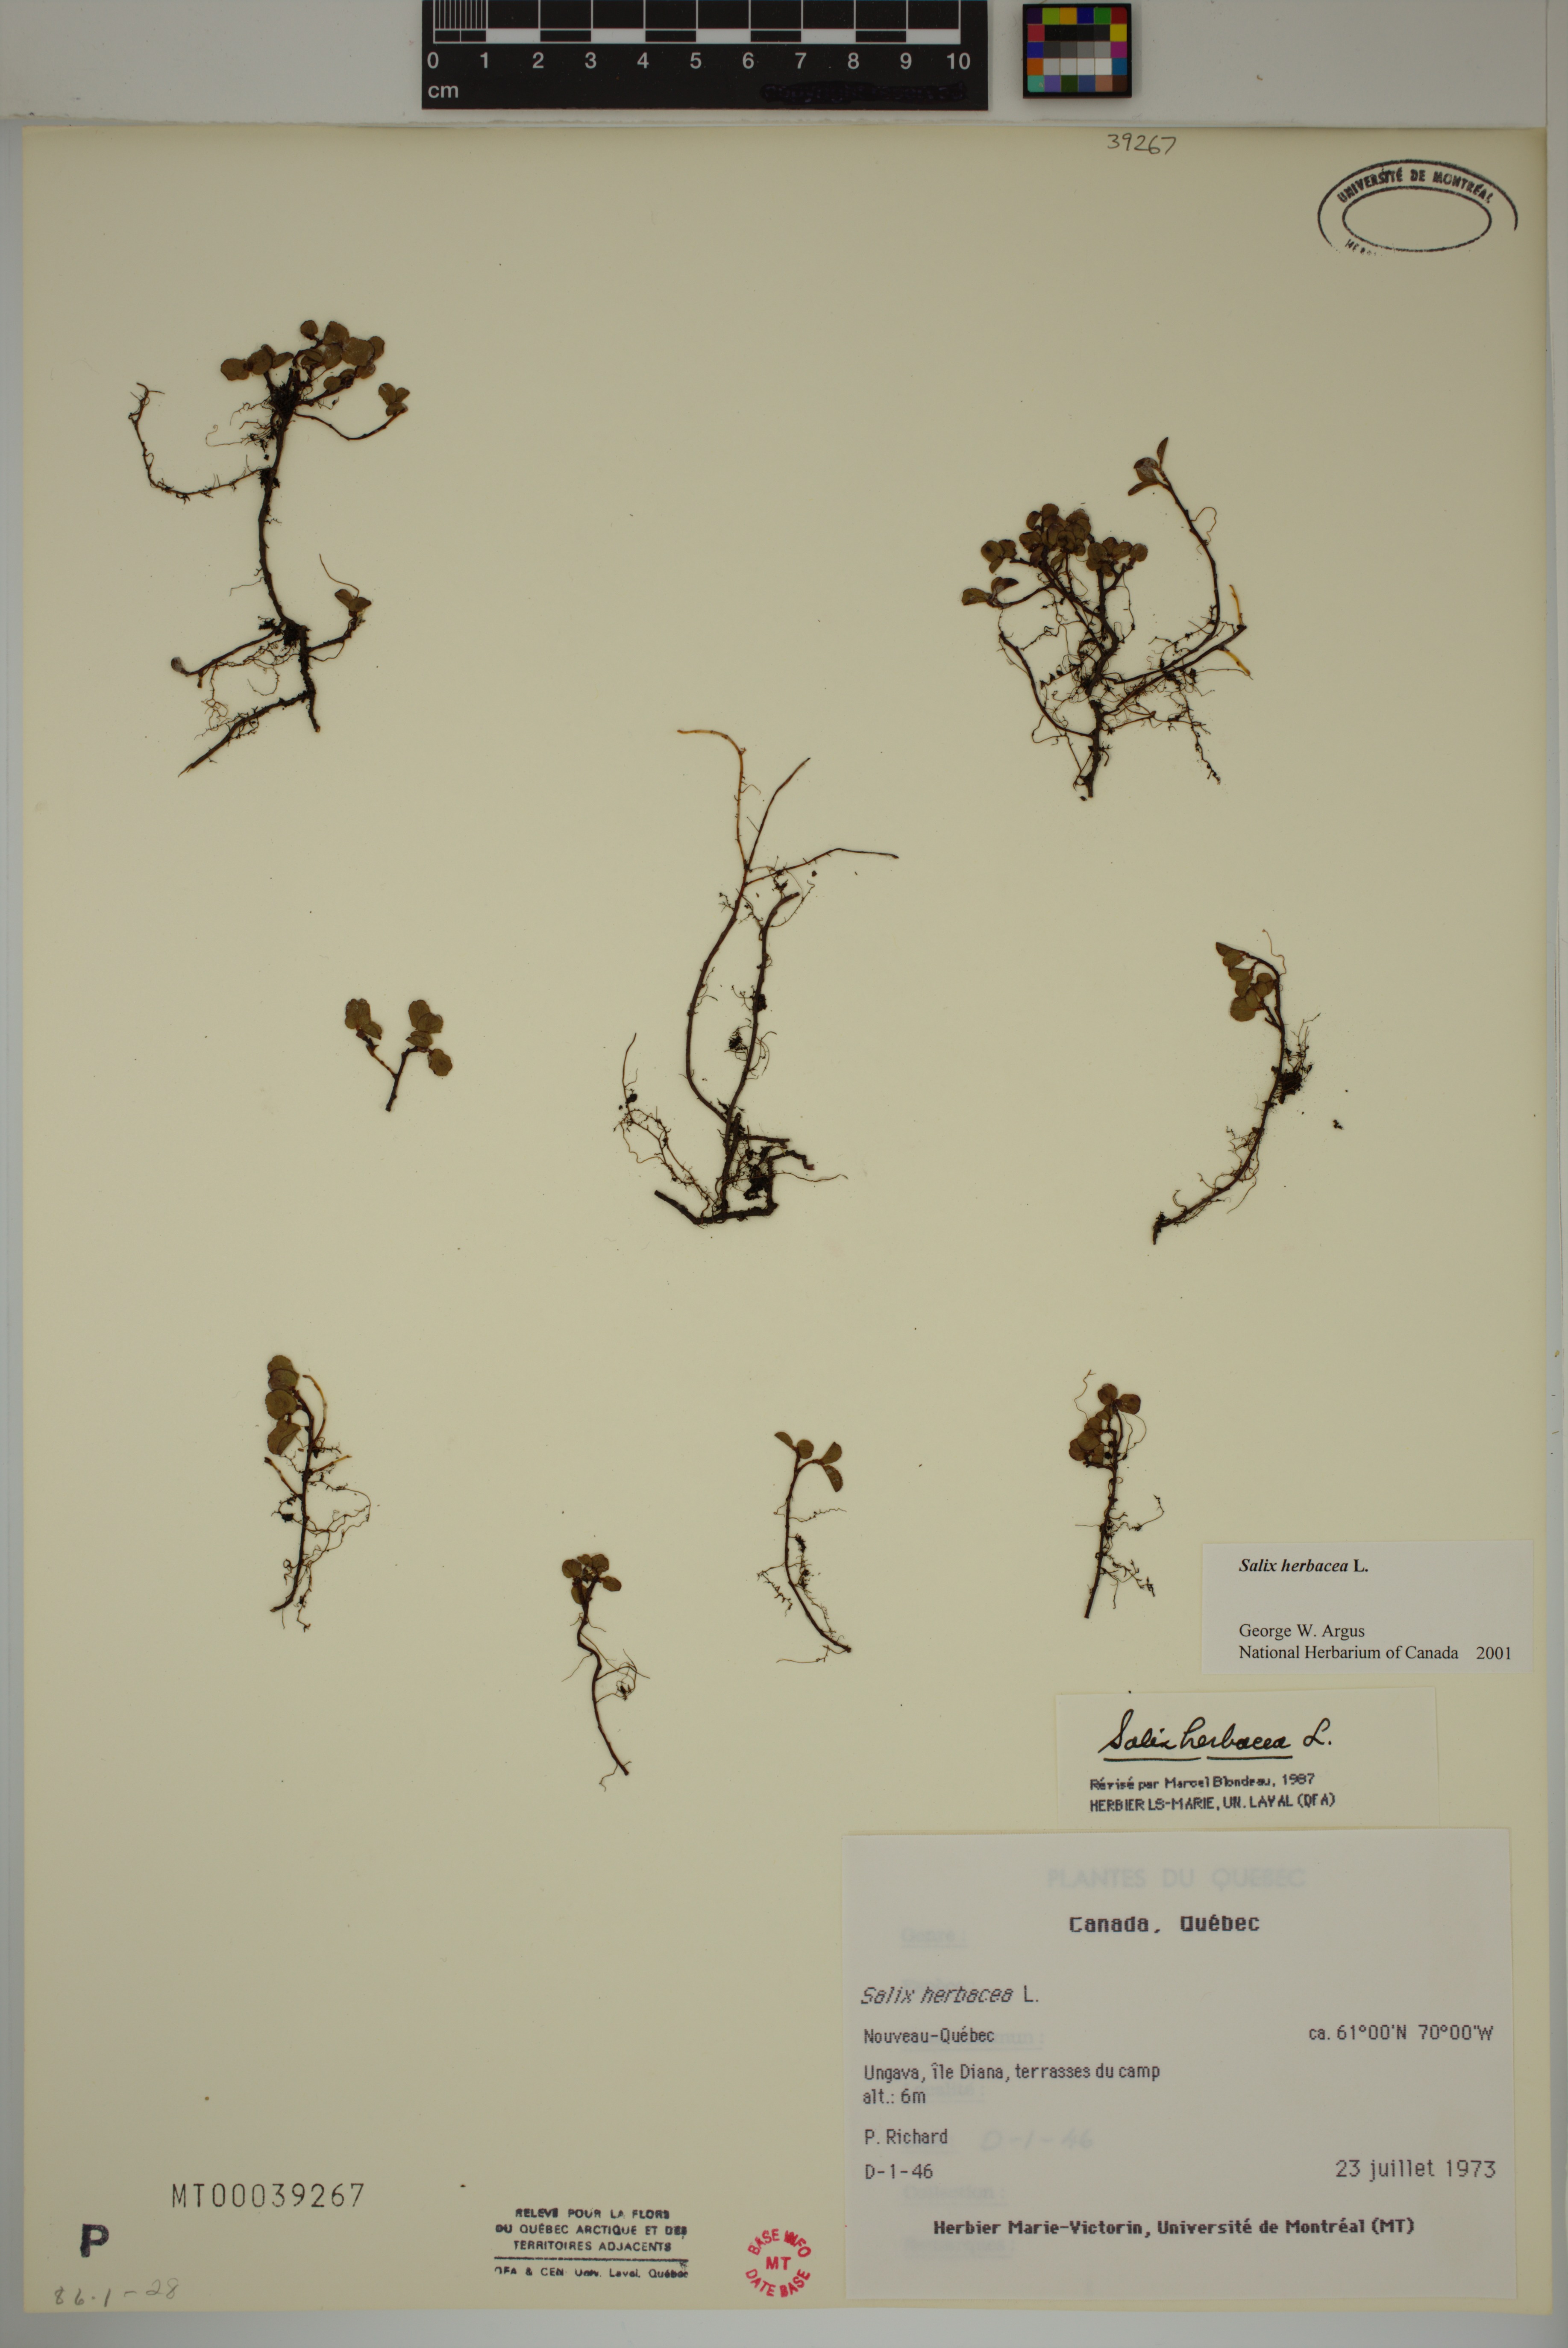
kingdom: Plantae
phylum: Tracheophyta
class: Magnoliopsida
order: Malpighiales
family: Salicaceae
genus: Salix
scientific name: Salix herbacea
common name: Dwarf willow
